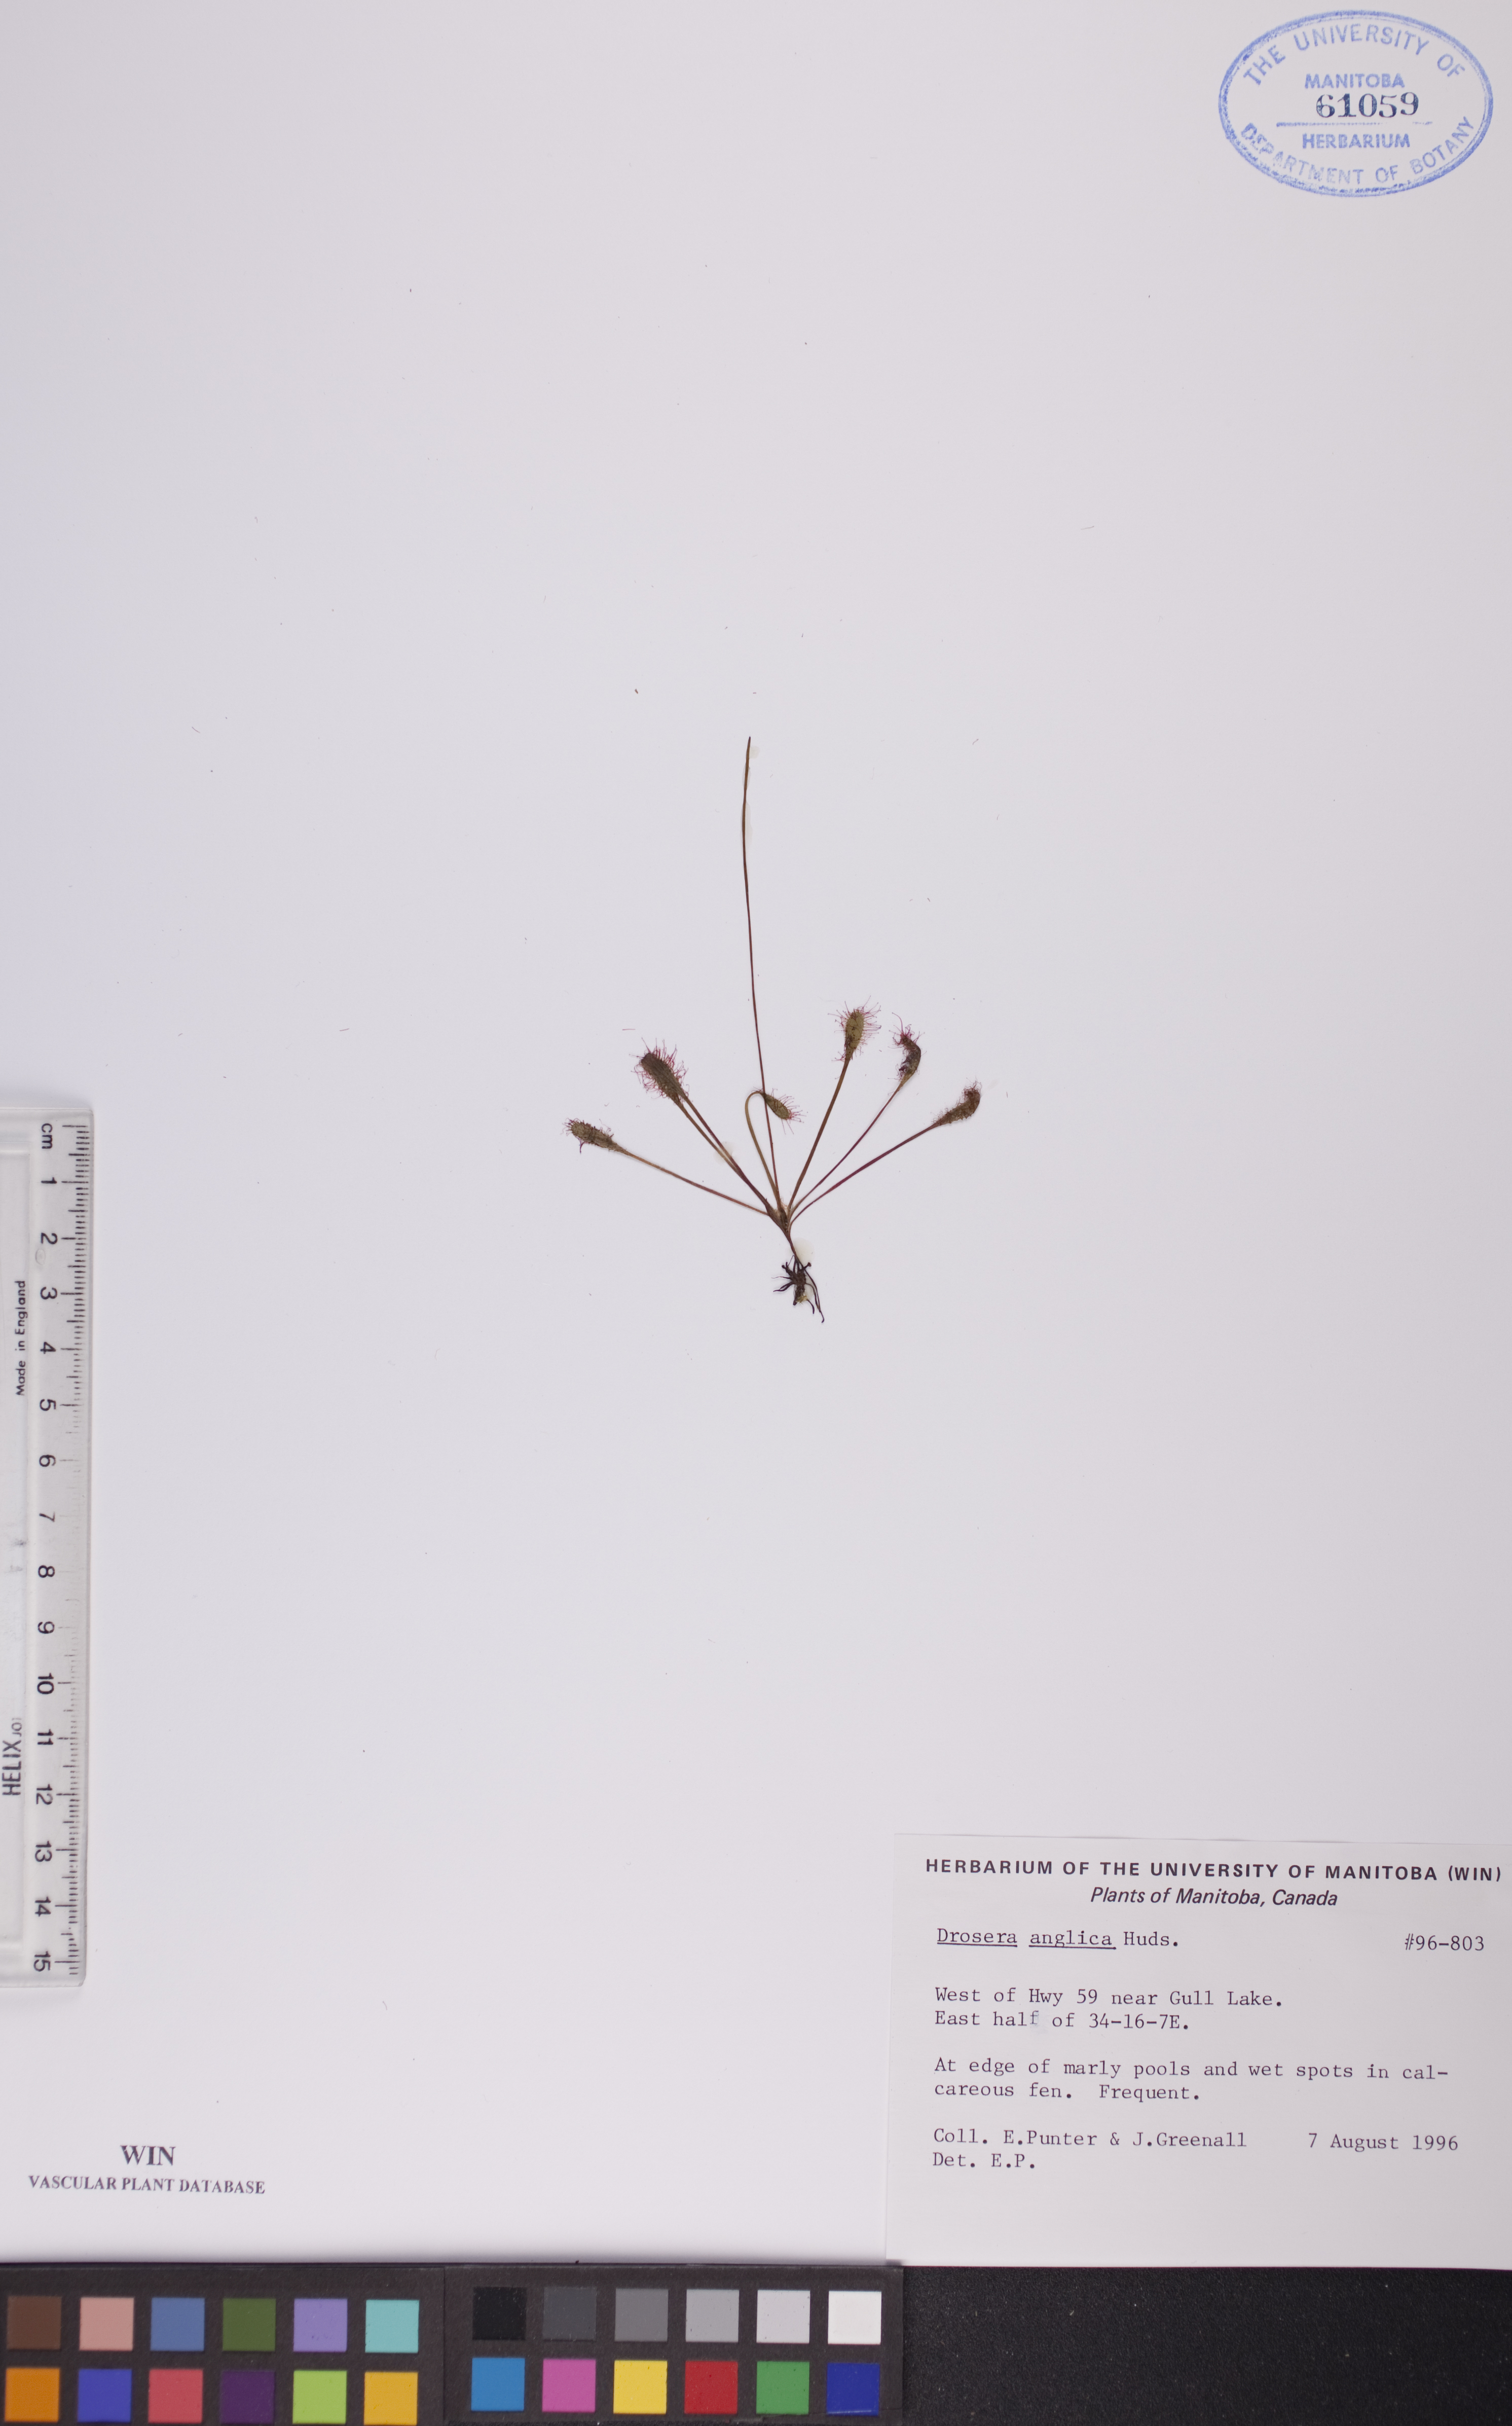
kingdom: Plantae
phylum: Tracheophyta
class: Magnoliopsida
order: Caryophyllales
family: Droseraceae
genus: Drosera
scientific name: Drosera anglica
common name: Great sundew
